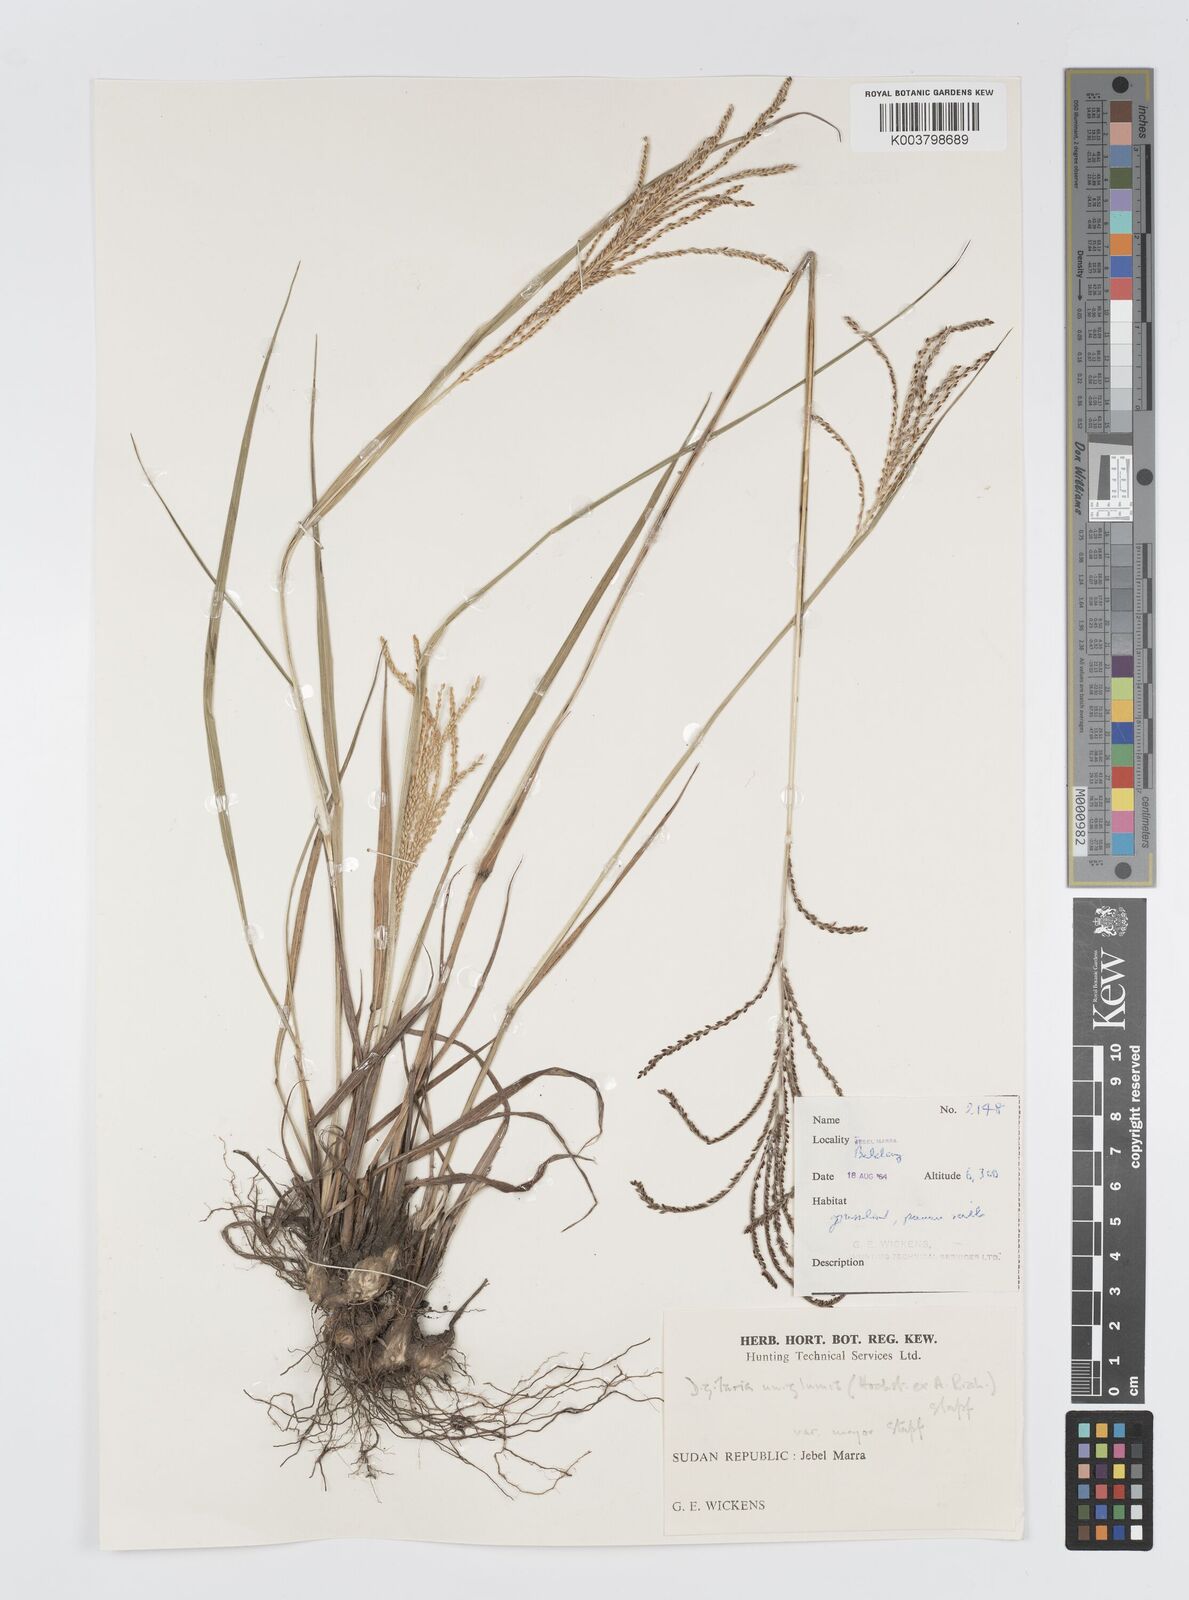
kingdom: Plantae
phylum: Tracheophyta
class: Liliopsida
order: Poales
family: Poaceae
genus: Digitaria
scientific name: Digitaria diagonalis
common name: Brown-seed finger grass
